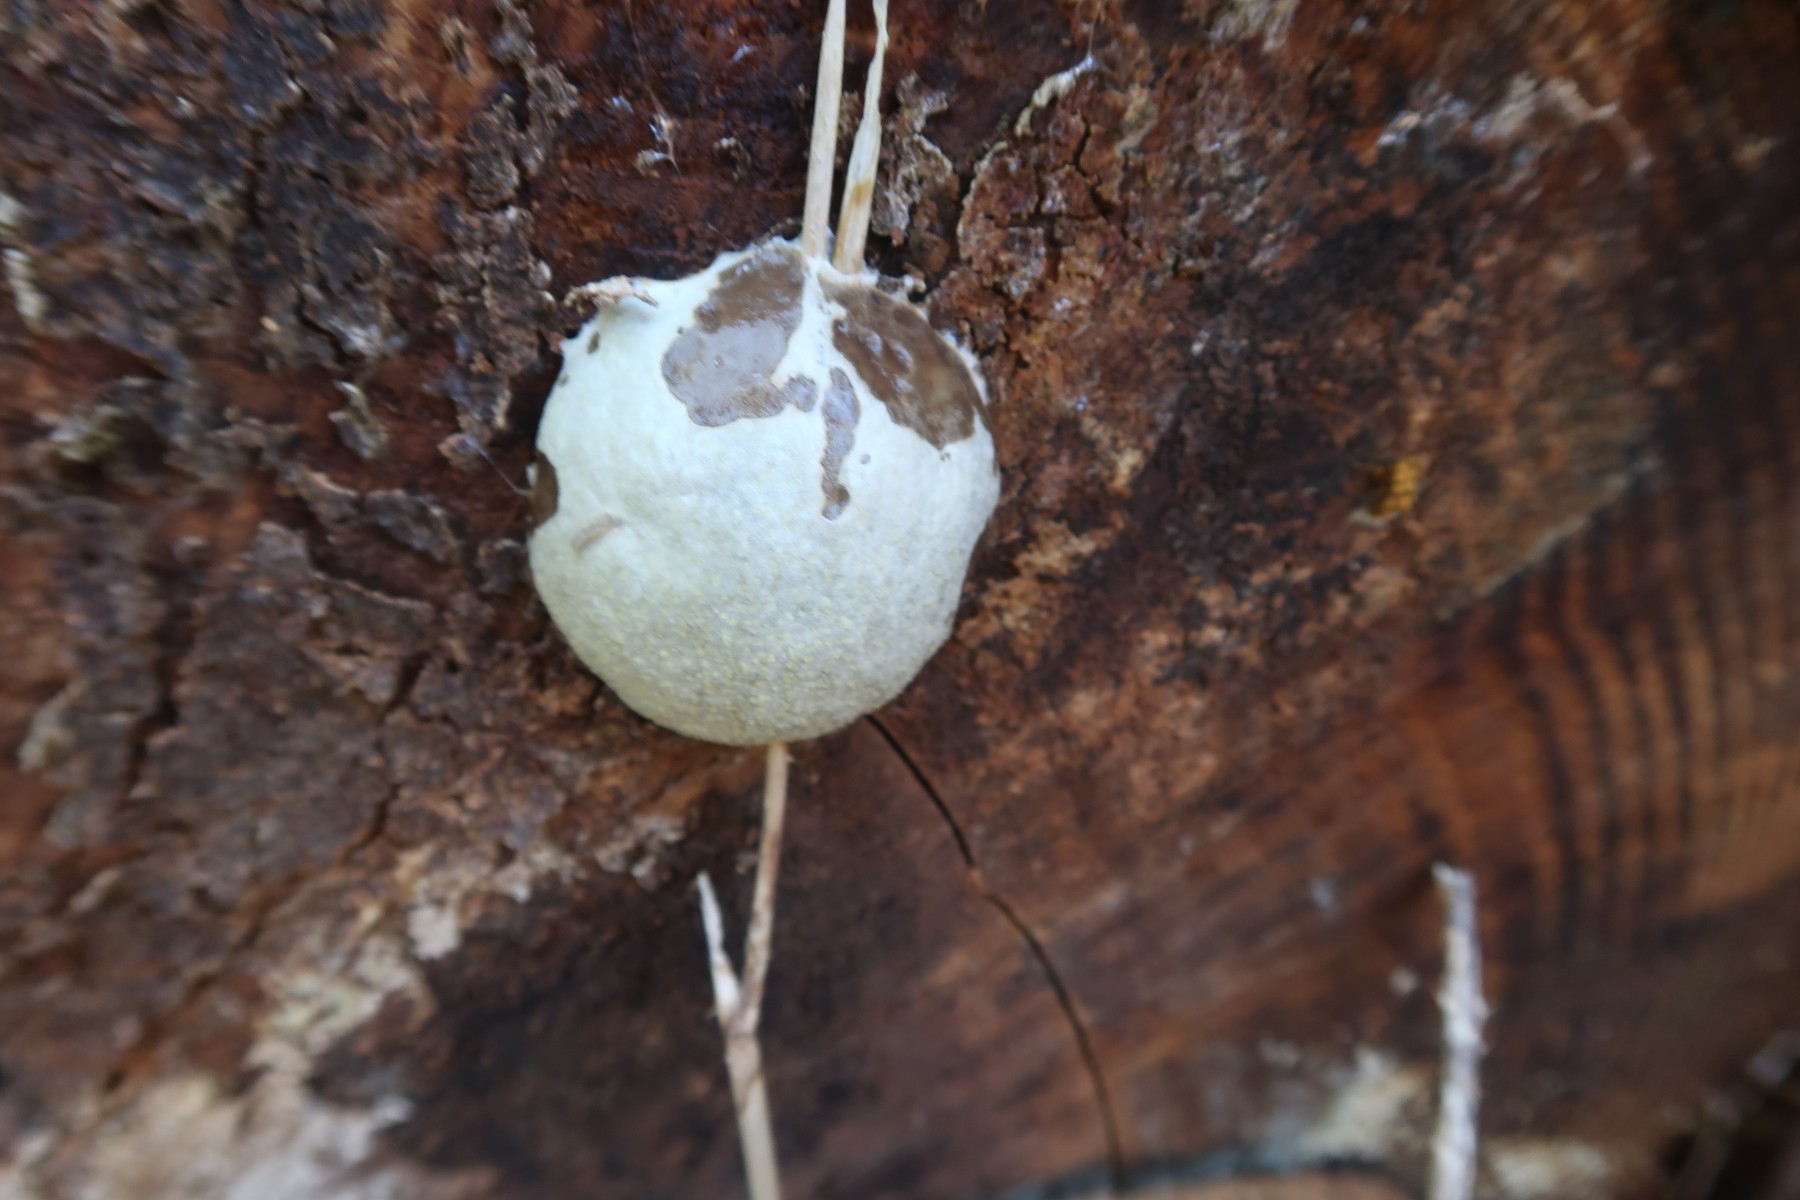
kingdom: Protozoa
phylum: Mycetozoa
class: Myxomycetes
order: Cribrariales
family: Tubiferaceae
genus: Reticularia
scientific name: Reticularia lycoperdon
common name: skinnende støvpude
